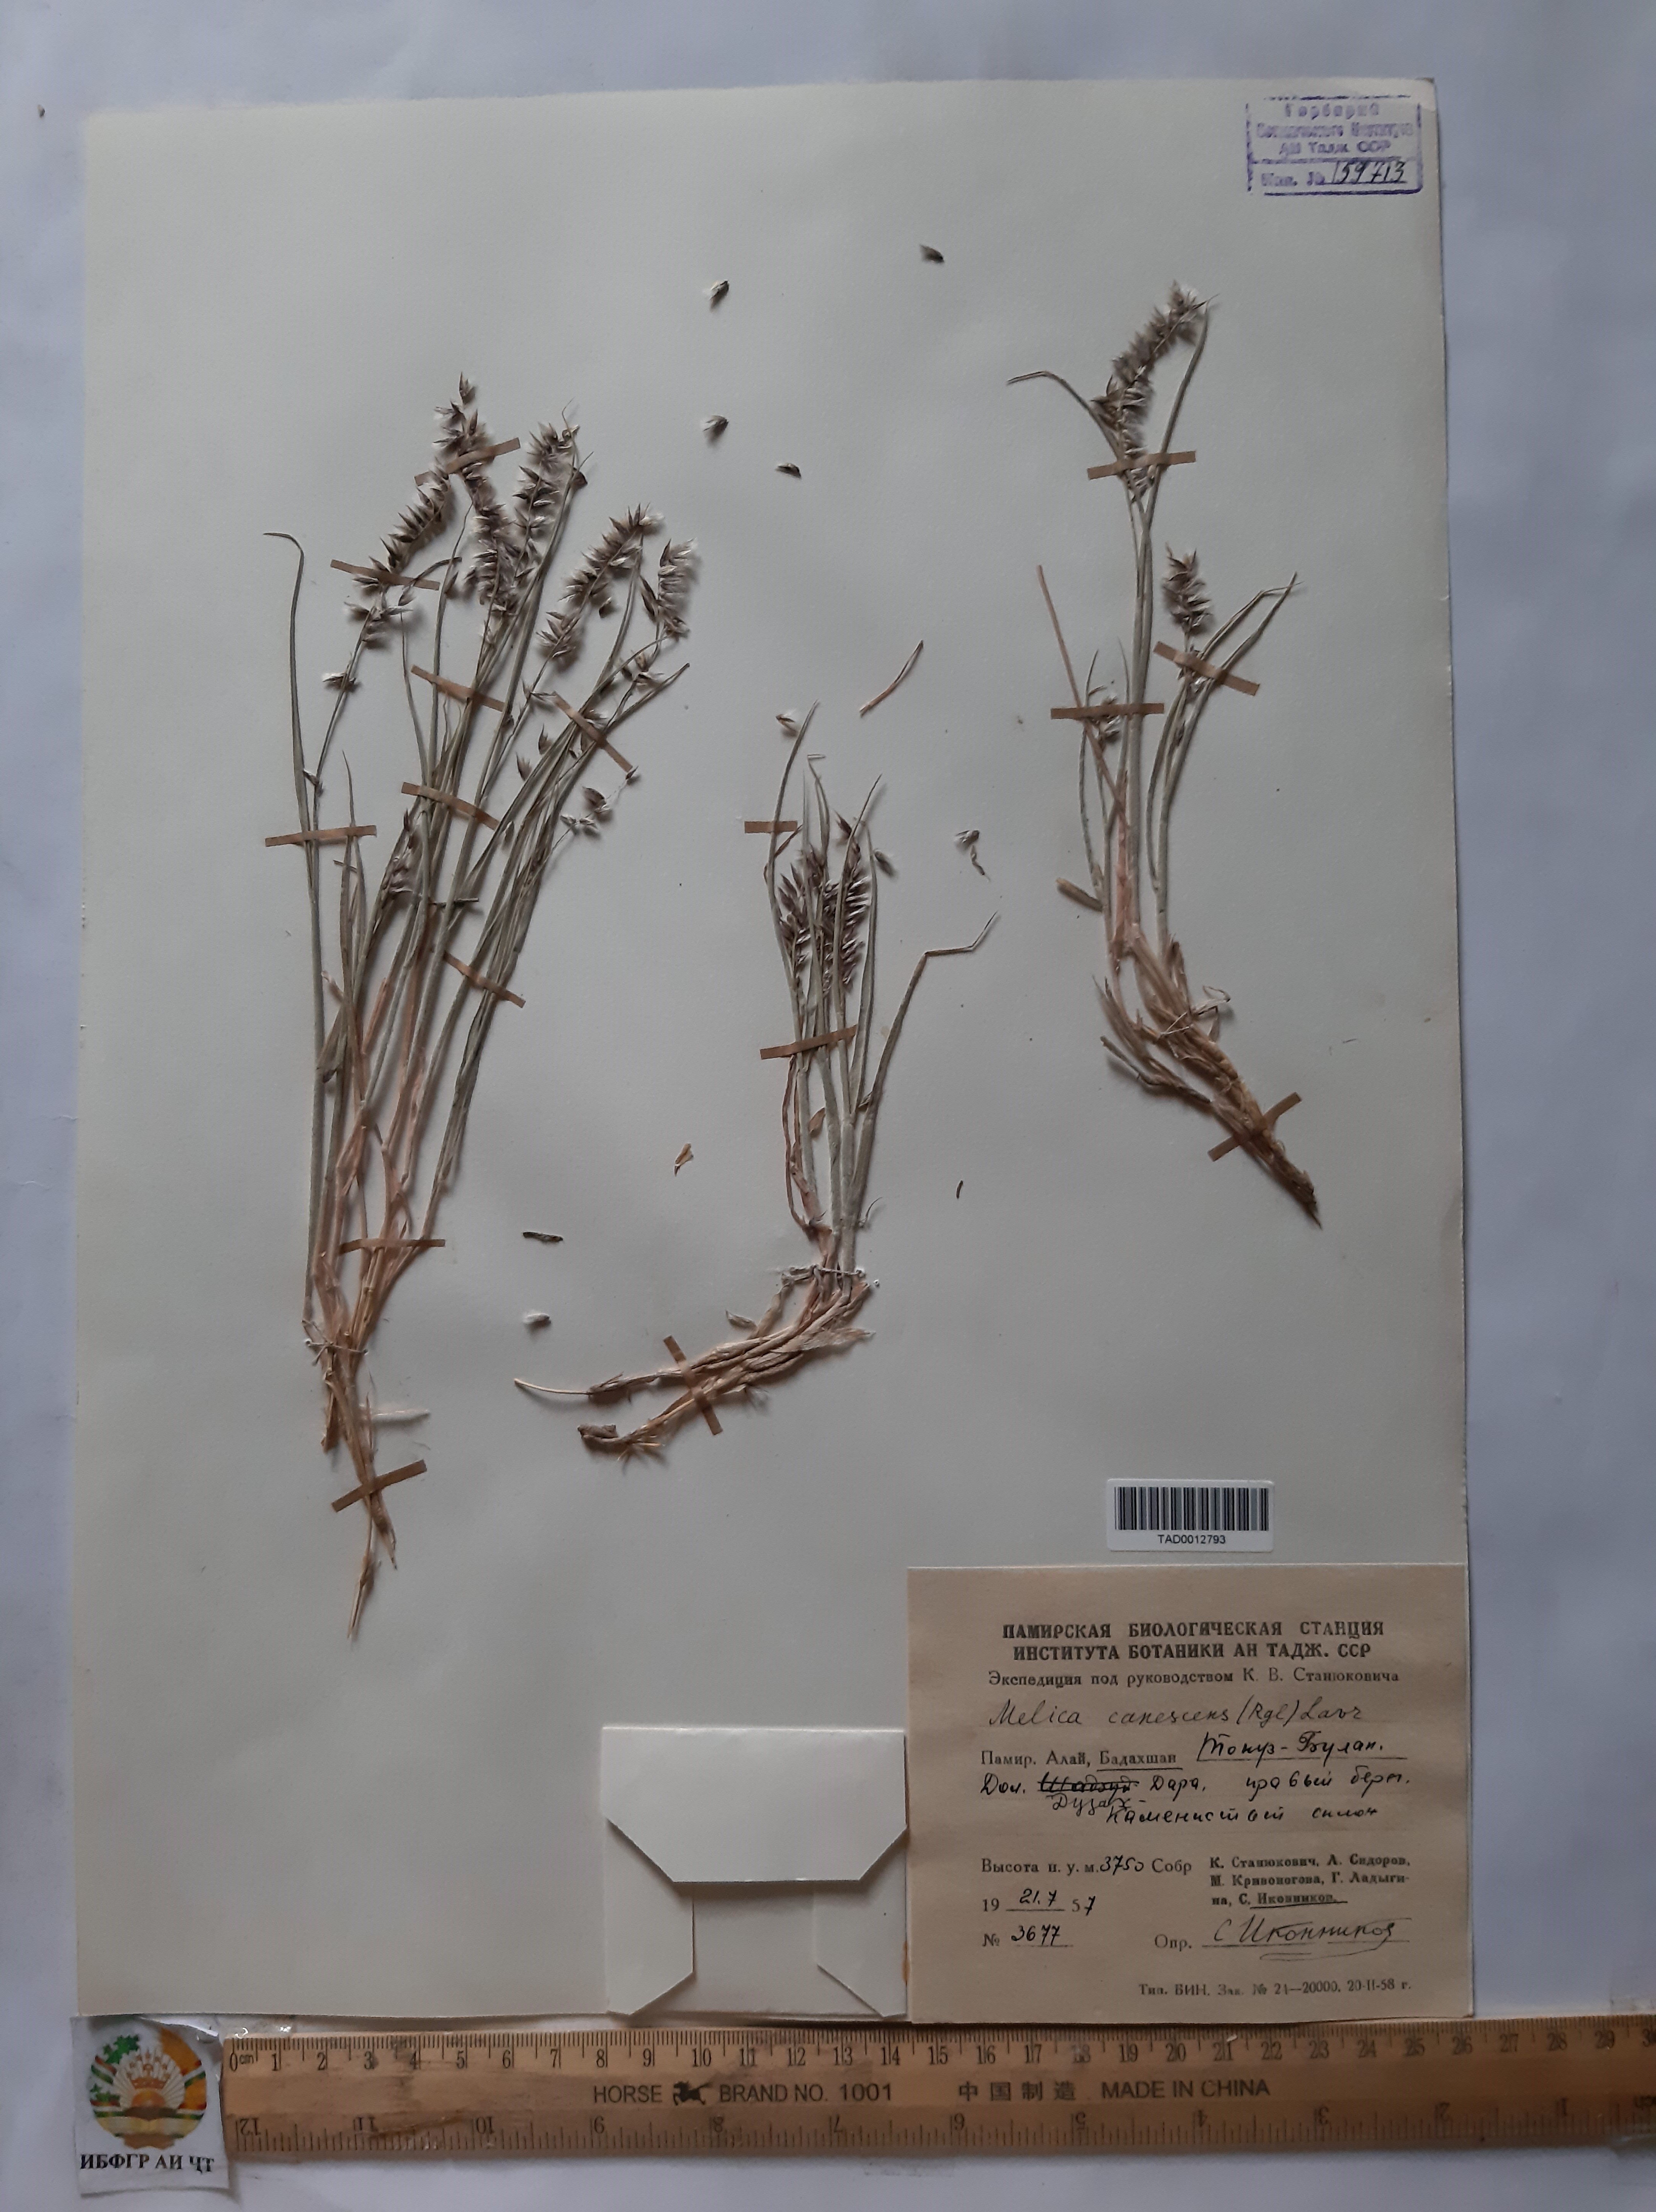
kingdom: Plantae
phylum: Tracheophyta
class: Liliopsida
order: Poales
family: Poaceae
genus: Melica
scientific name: Melica persica
